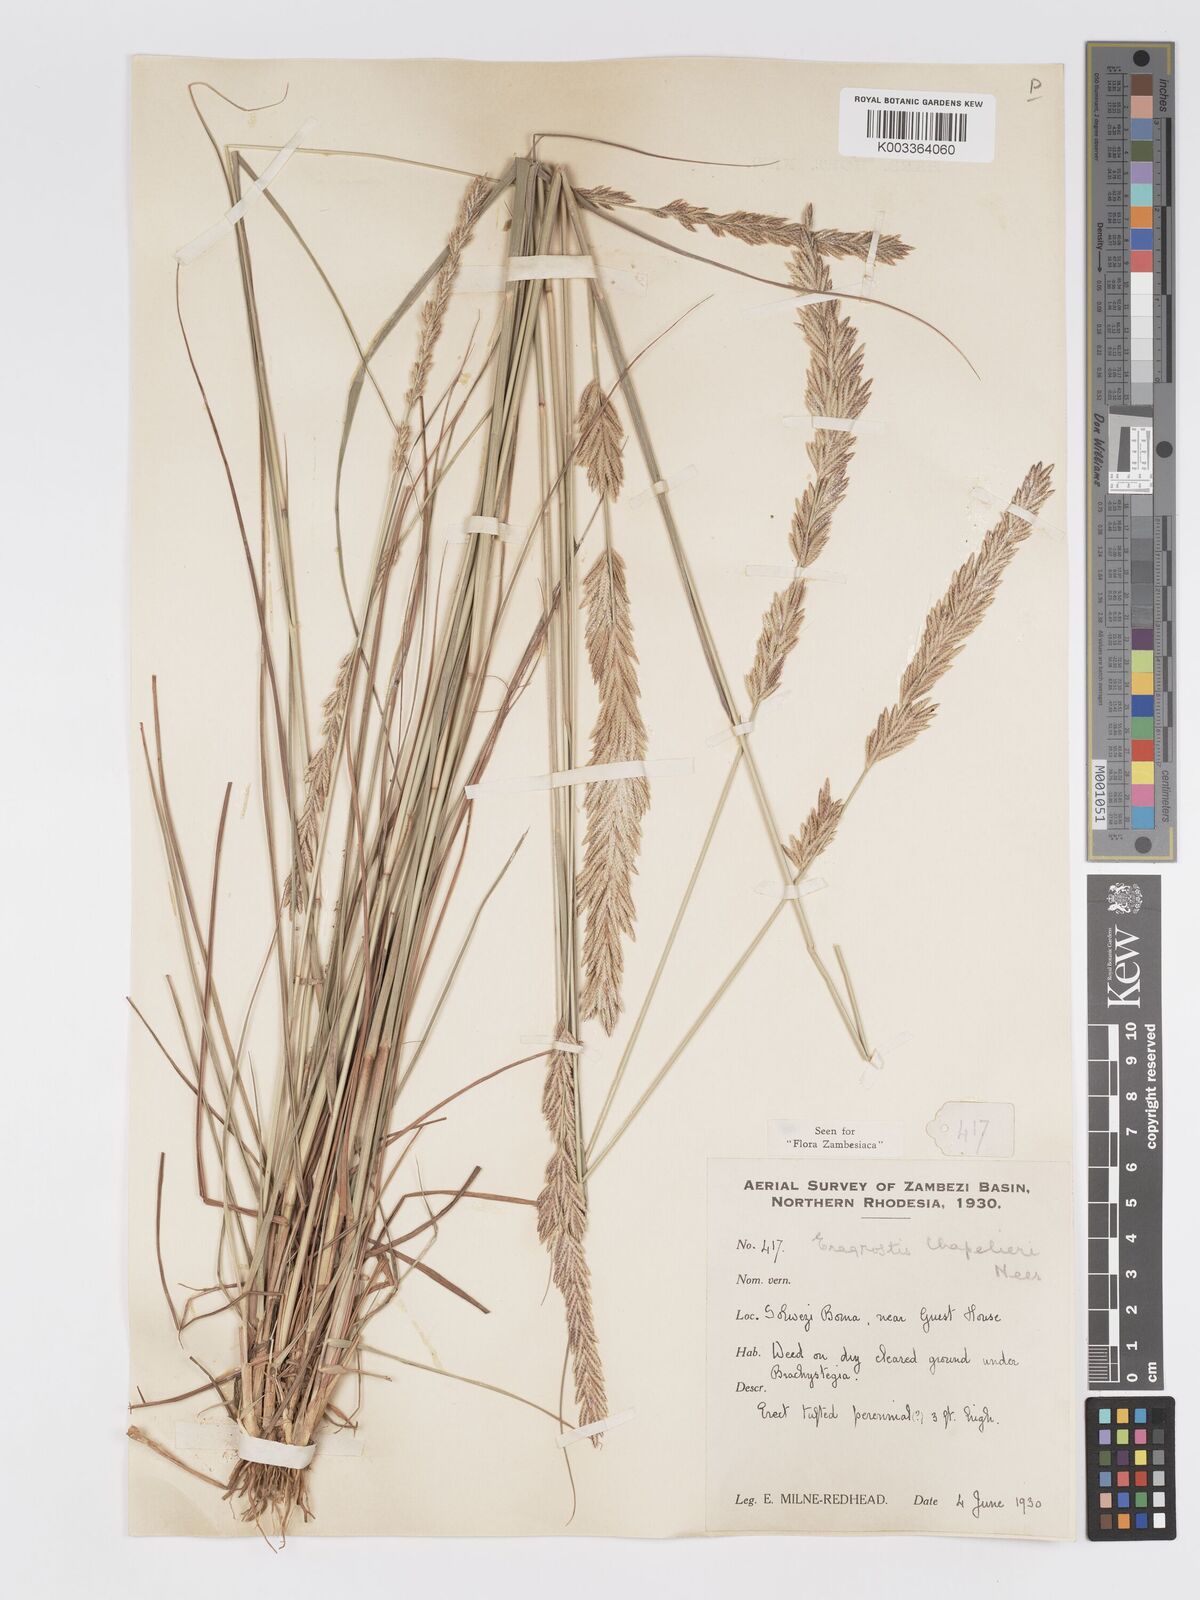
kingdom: Plantae
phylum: Tracheophyta
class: Liliopsida
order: Poales
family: Poaceae
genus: Eragrostis
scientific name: Eragrostis chapelieri
